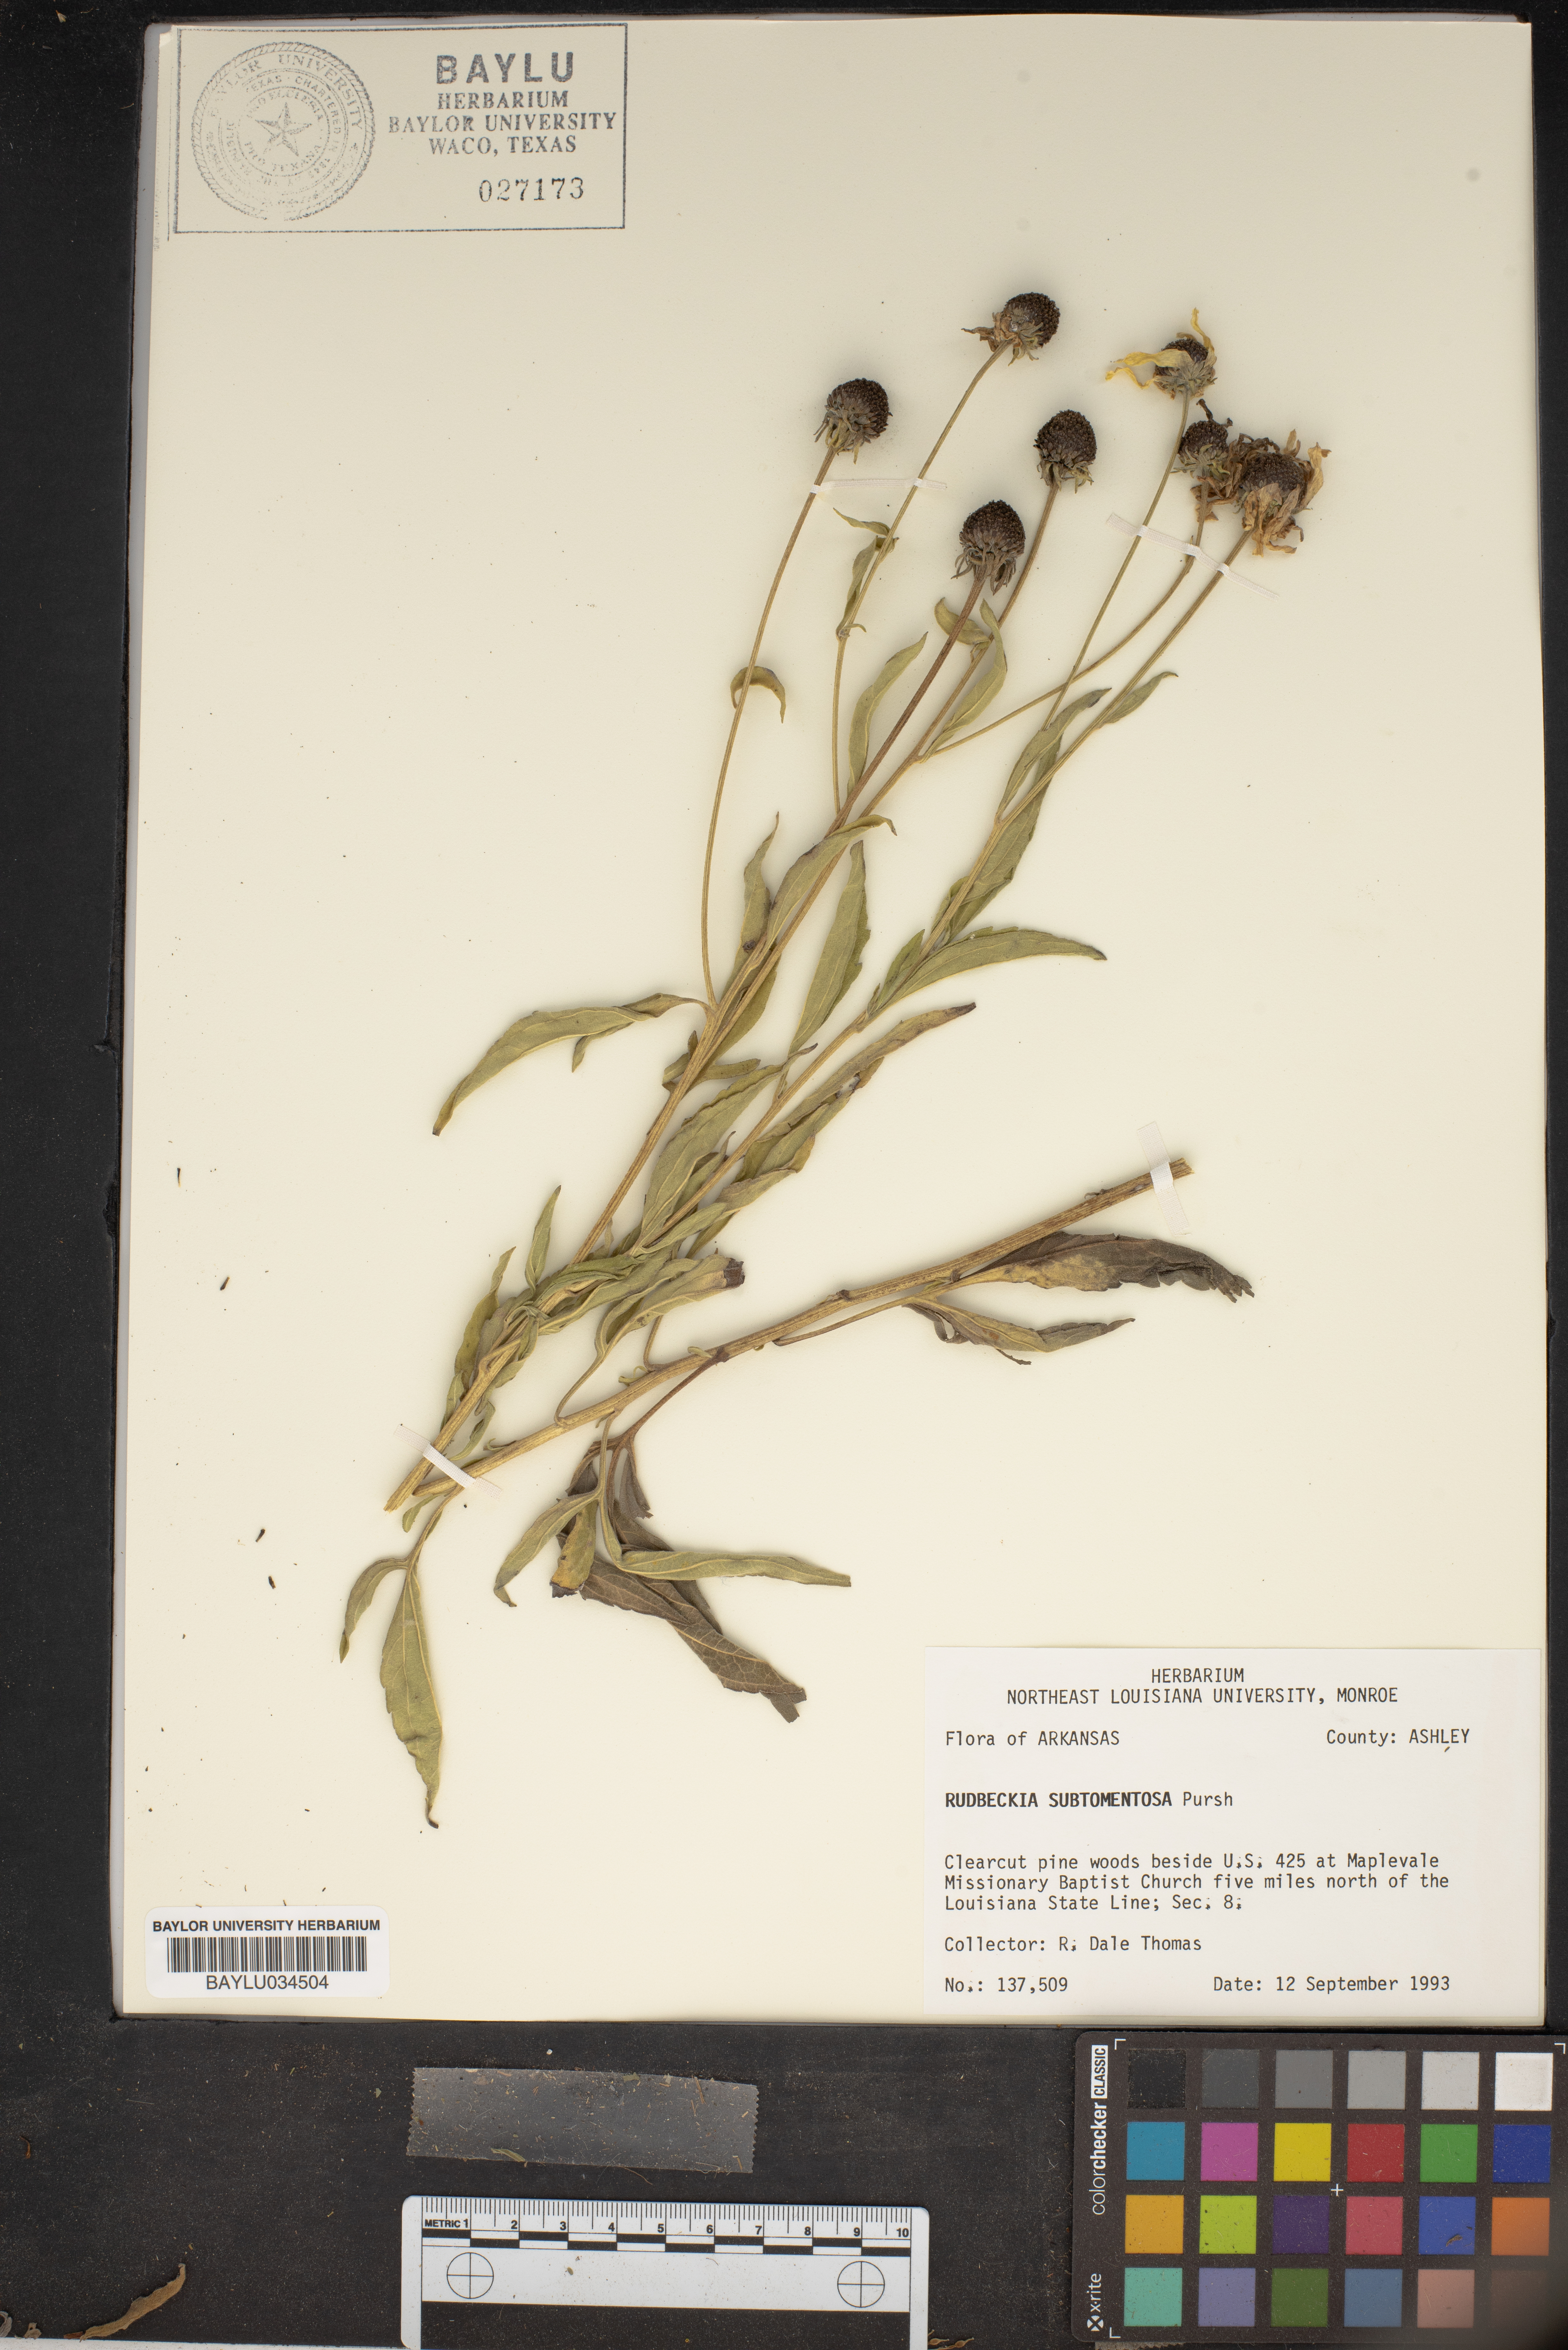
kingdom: Plantae
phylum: Tracheophyta
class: Magnoliopsida
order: Asterales
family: Asteraceae
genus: Rudbeckia
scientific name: Rudbeckia subtomentosa
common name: Sweet coneflower
